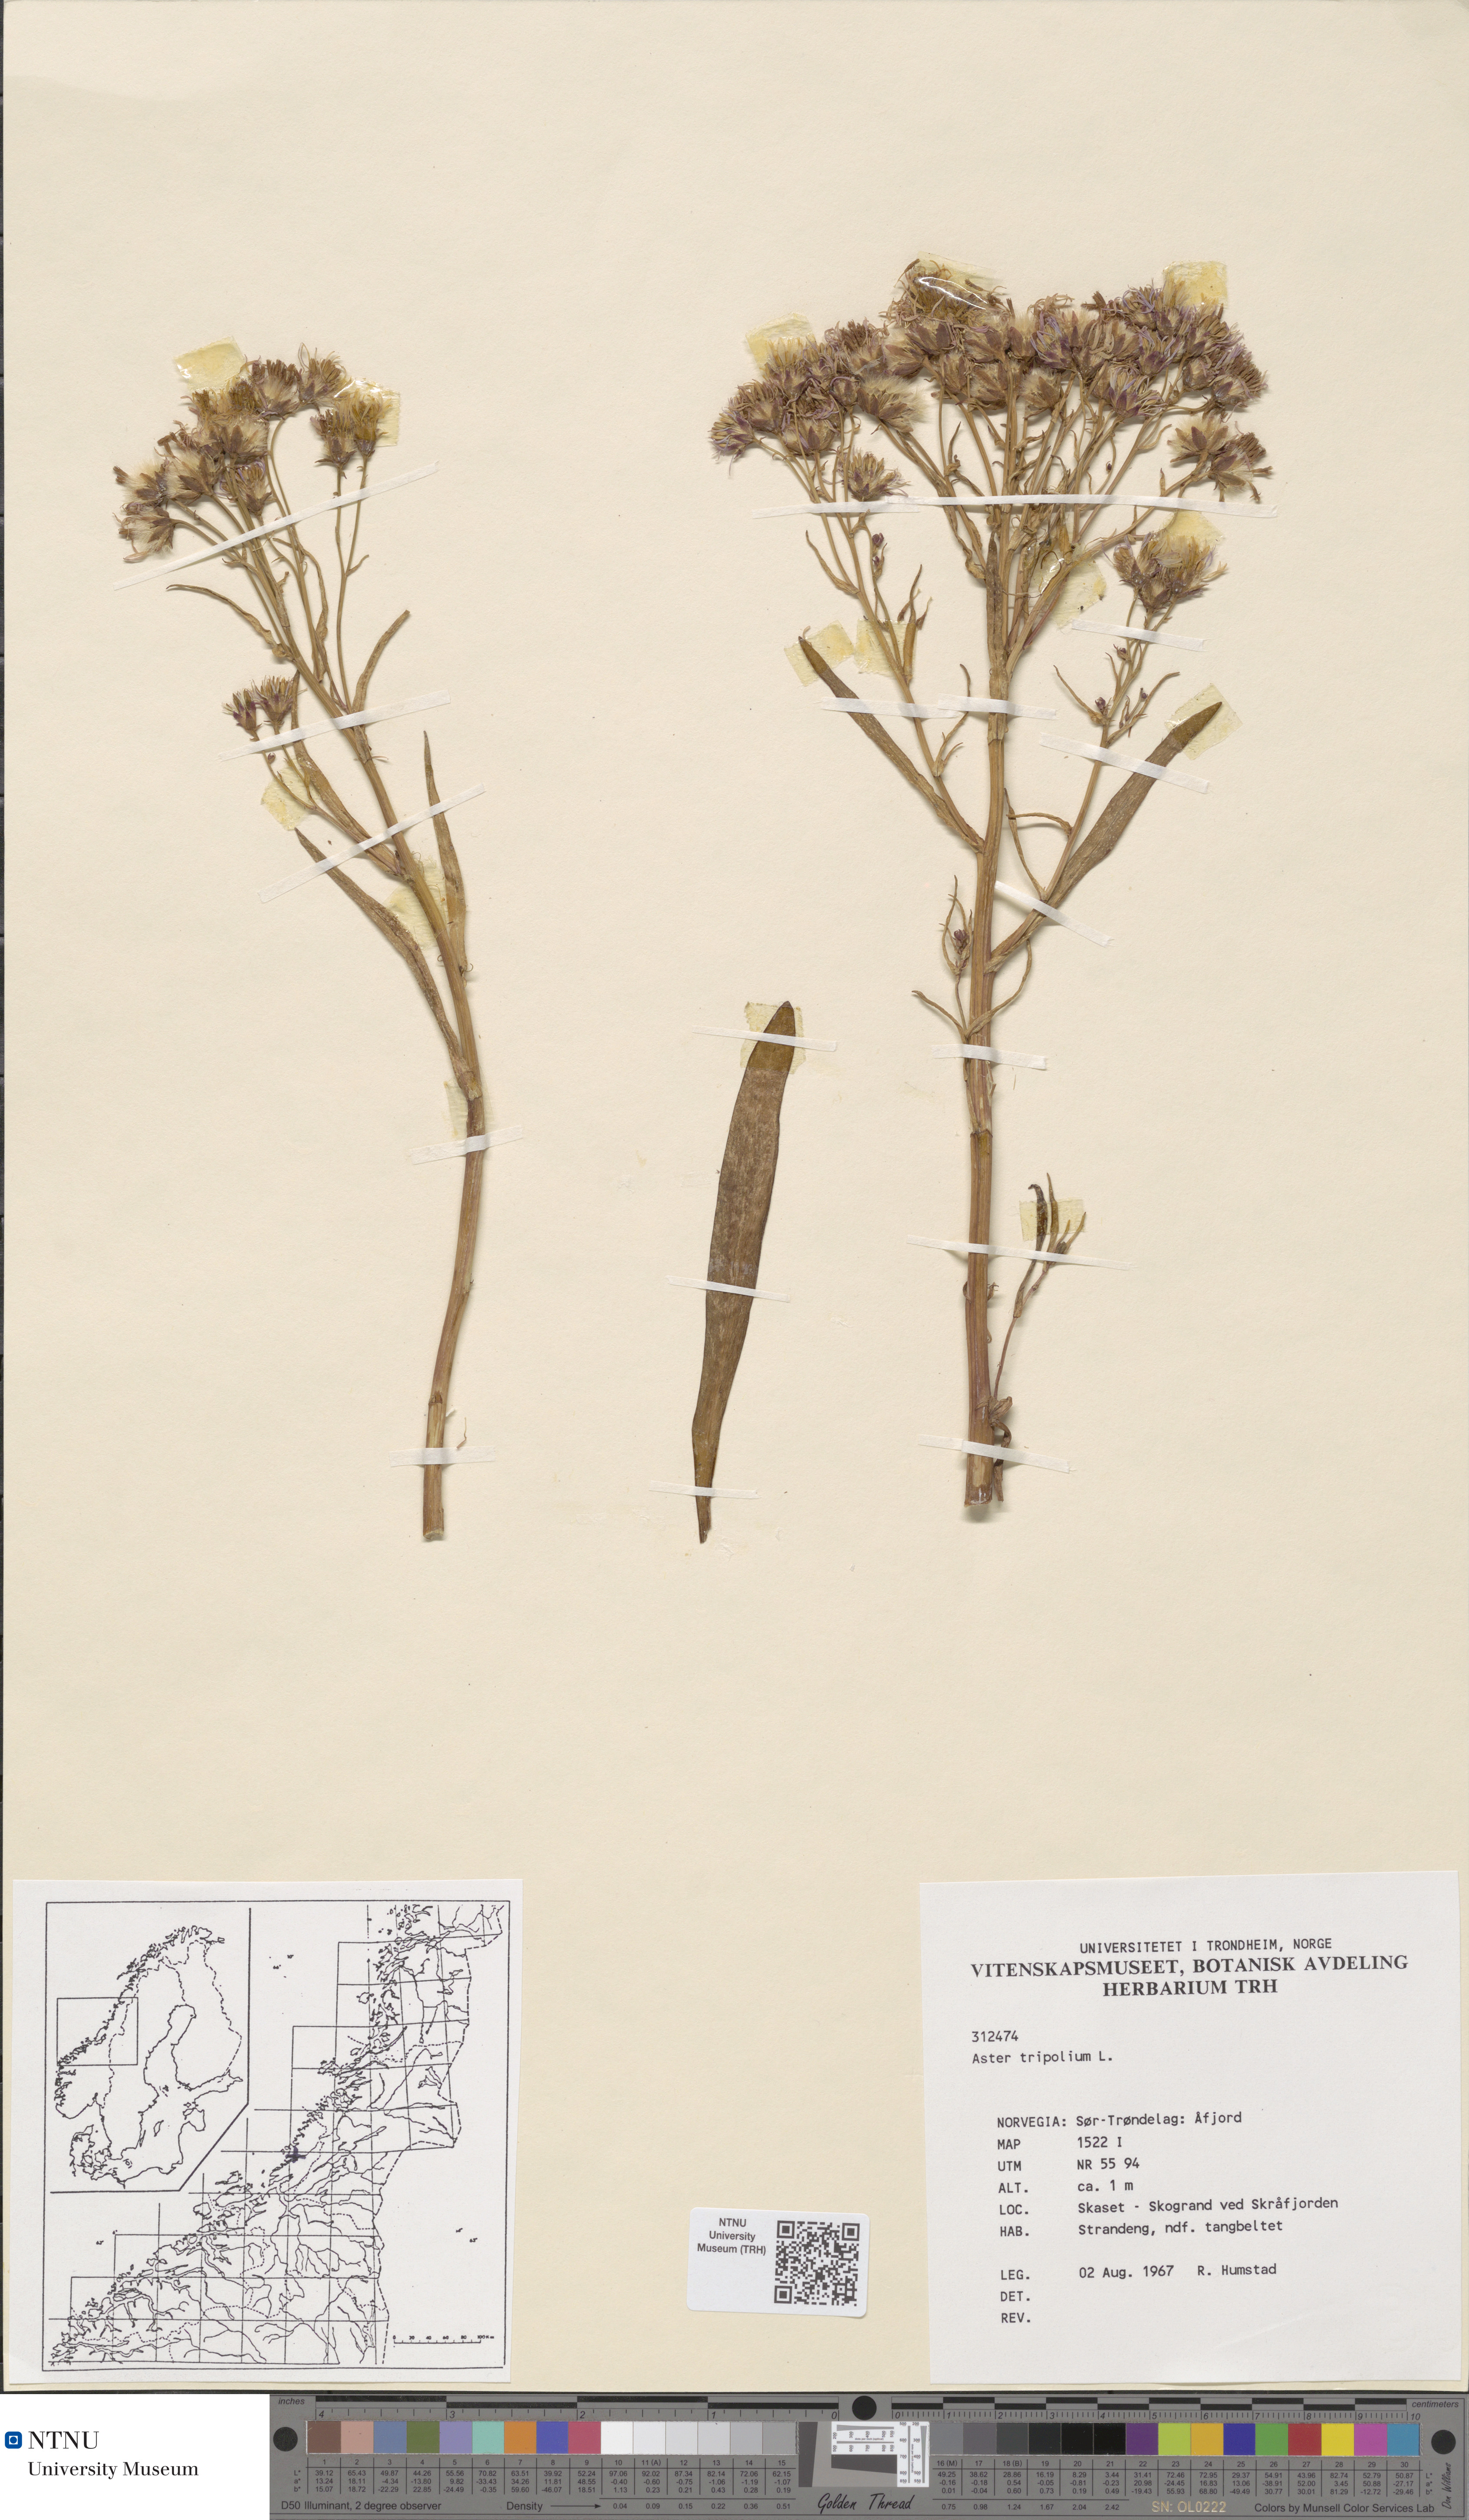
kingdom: Plantae
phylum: Tracheophyta
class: Magnoliopsida
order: Asterales
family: Asteraceae
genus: Tripolium
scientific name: Tripolium pannonicum
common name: Sea aster
